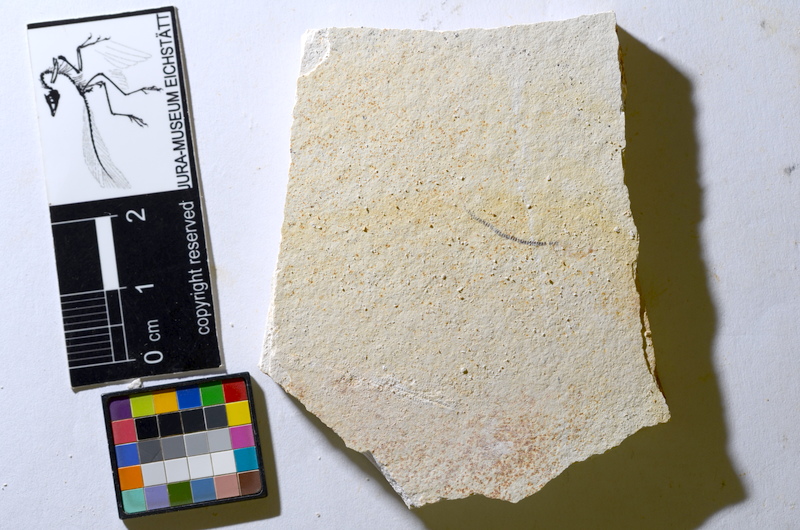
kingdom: Animalia
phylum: Chordata
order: Salmoniformes
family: Orthogonikleithridae
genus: Orthogonikleithrus
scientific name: Orthogonikleithrus hoelli
